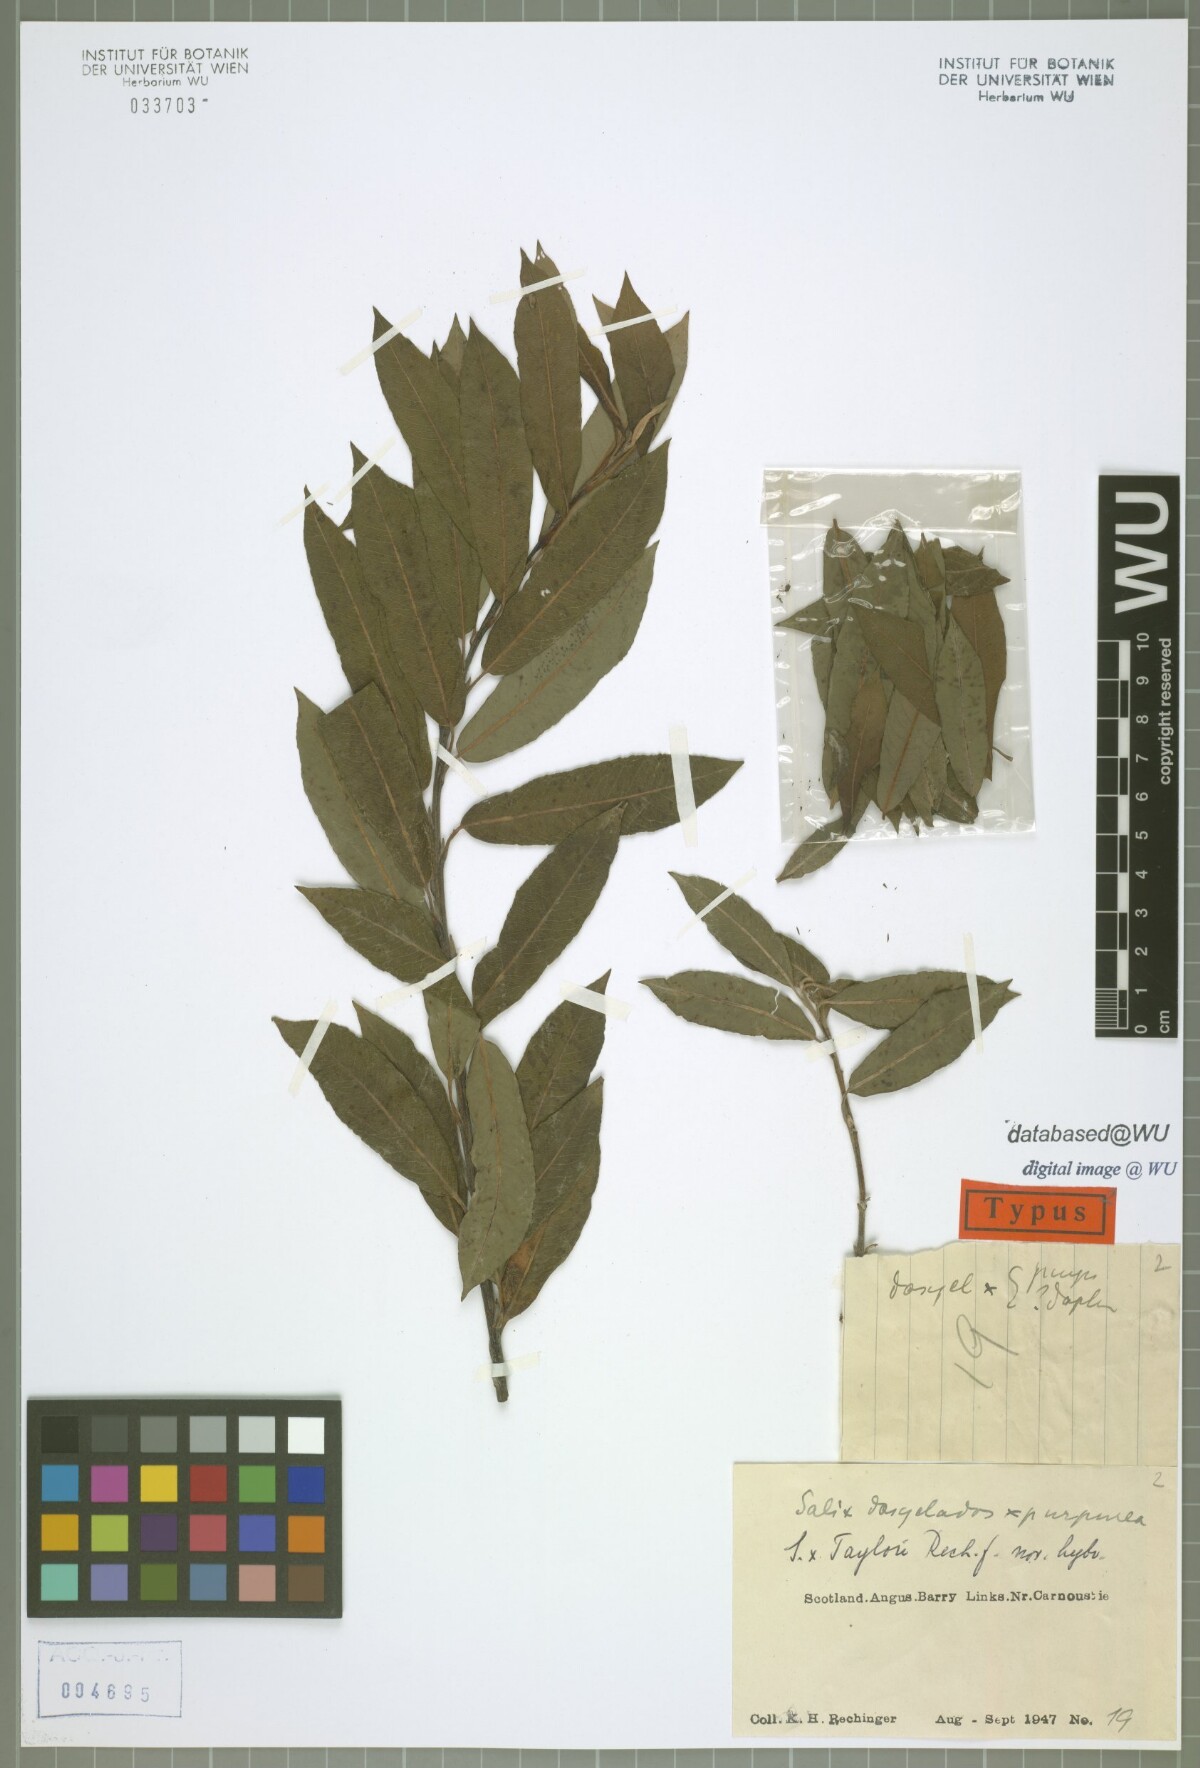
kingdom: Plantae
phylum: Tracheophyta
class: Magnoliopsida
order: Malpighiales
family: Salicaceae
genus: Salix
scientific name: Salix taylorii
